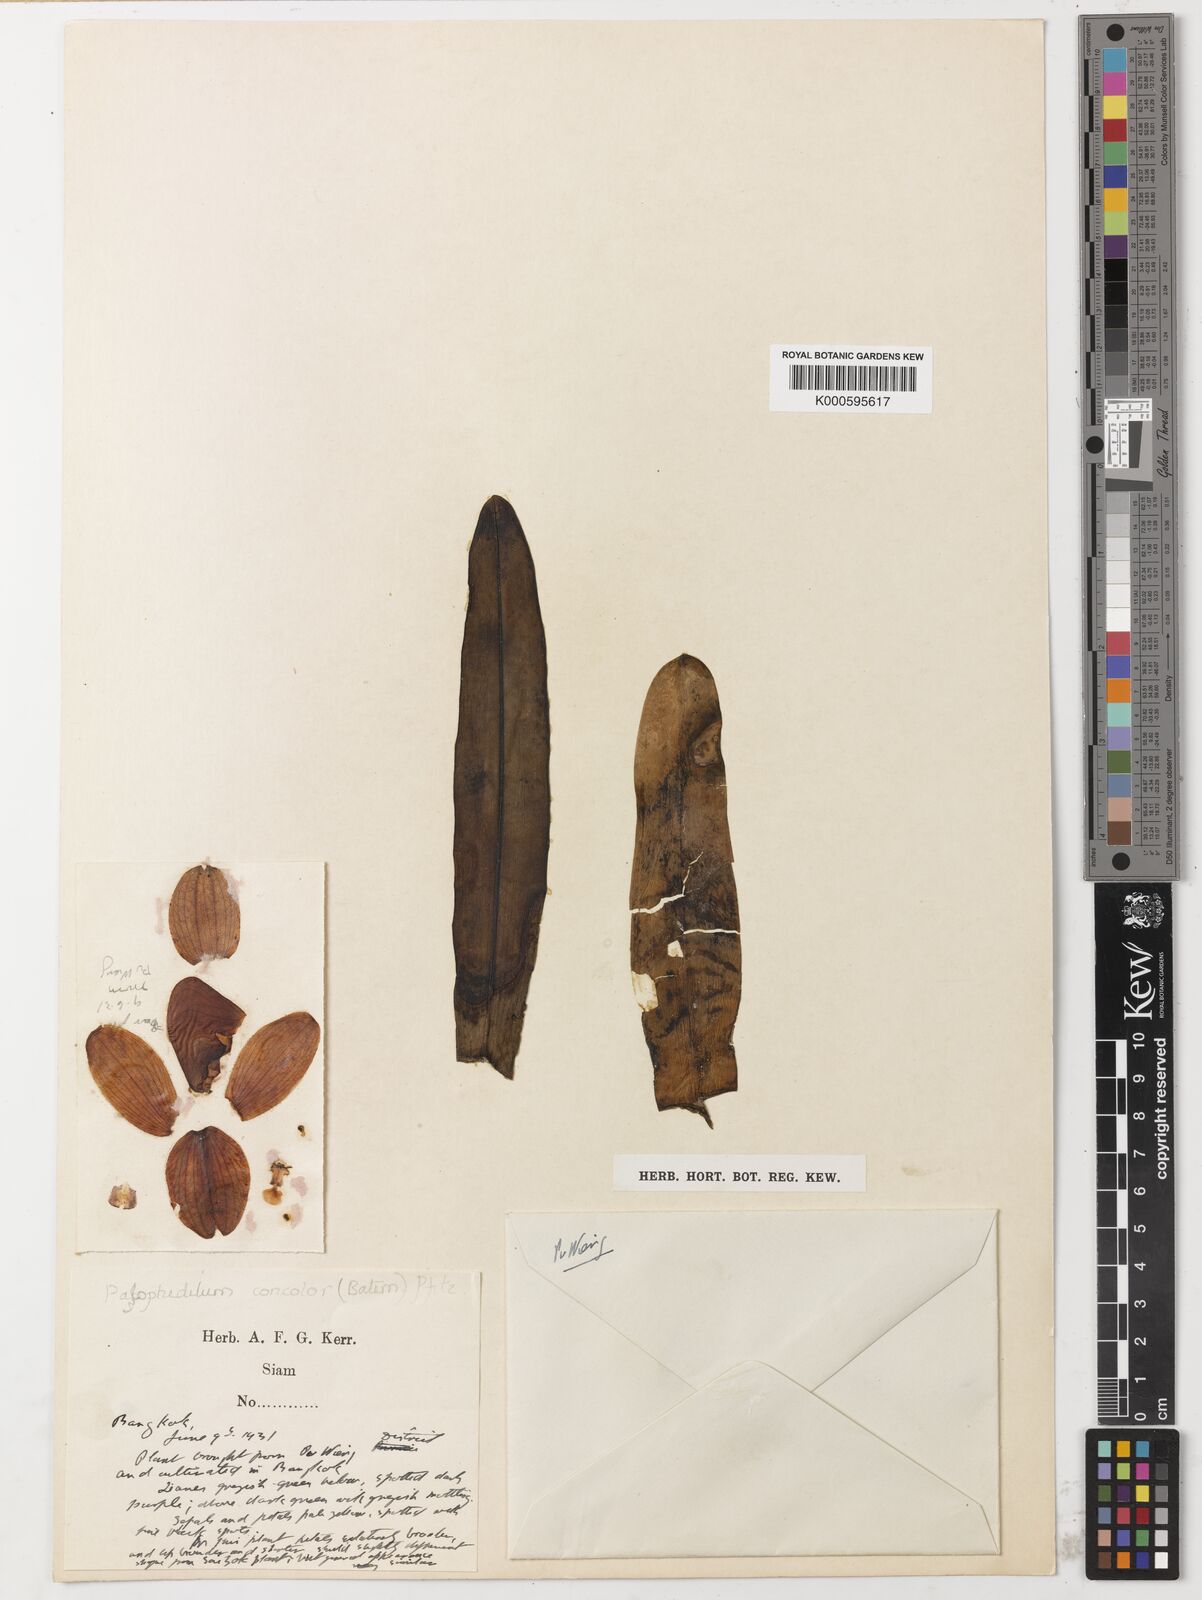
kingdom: Plantae
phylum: Tracheophyta
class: Liliopsida
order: Asparagales
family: Orchidaceae
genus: Paphiopedilum
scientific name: Paphiopedilum concolor
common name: One colored paphiopedilum
